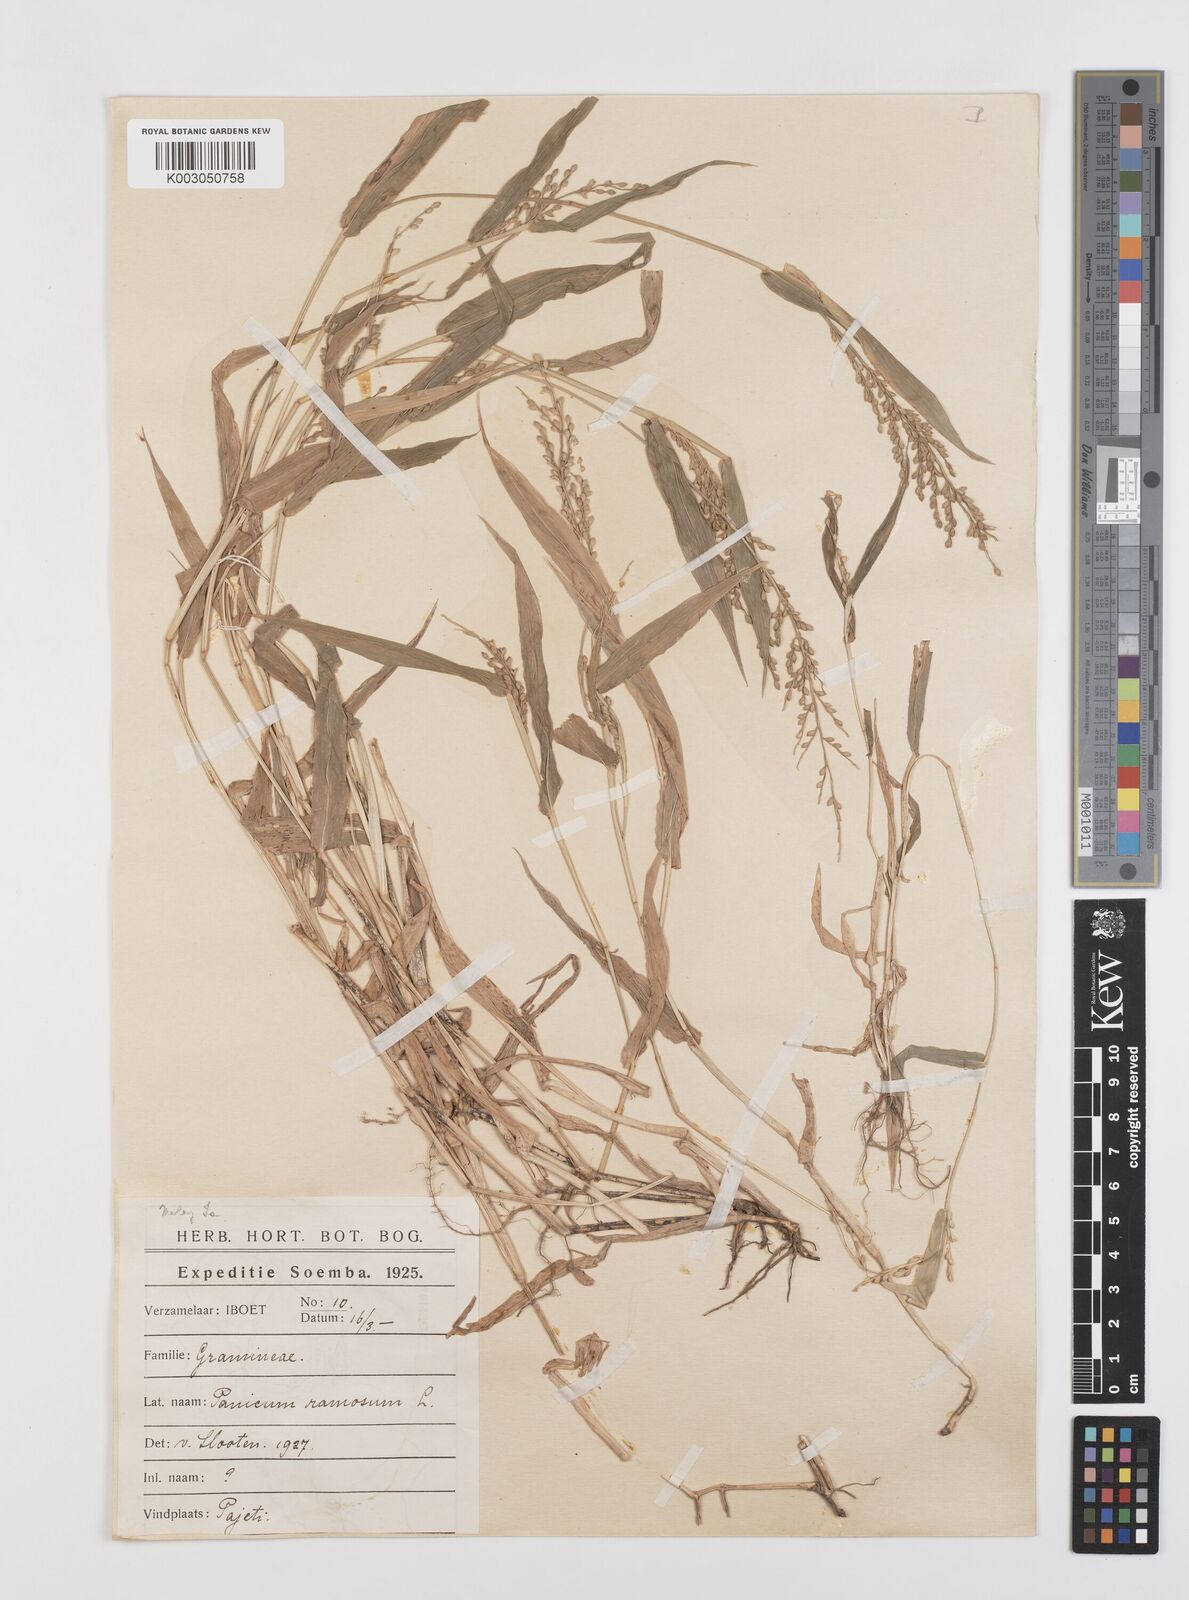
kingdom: Plantae
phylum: Tracheophyta
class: Liliopsida
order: Poales
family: Poaceae
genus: Urochloa
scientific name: Urochloa ramosa
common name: Browntop millet
